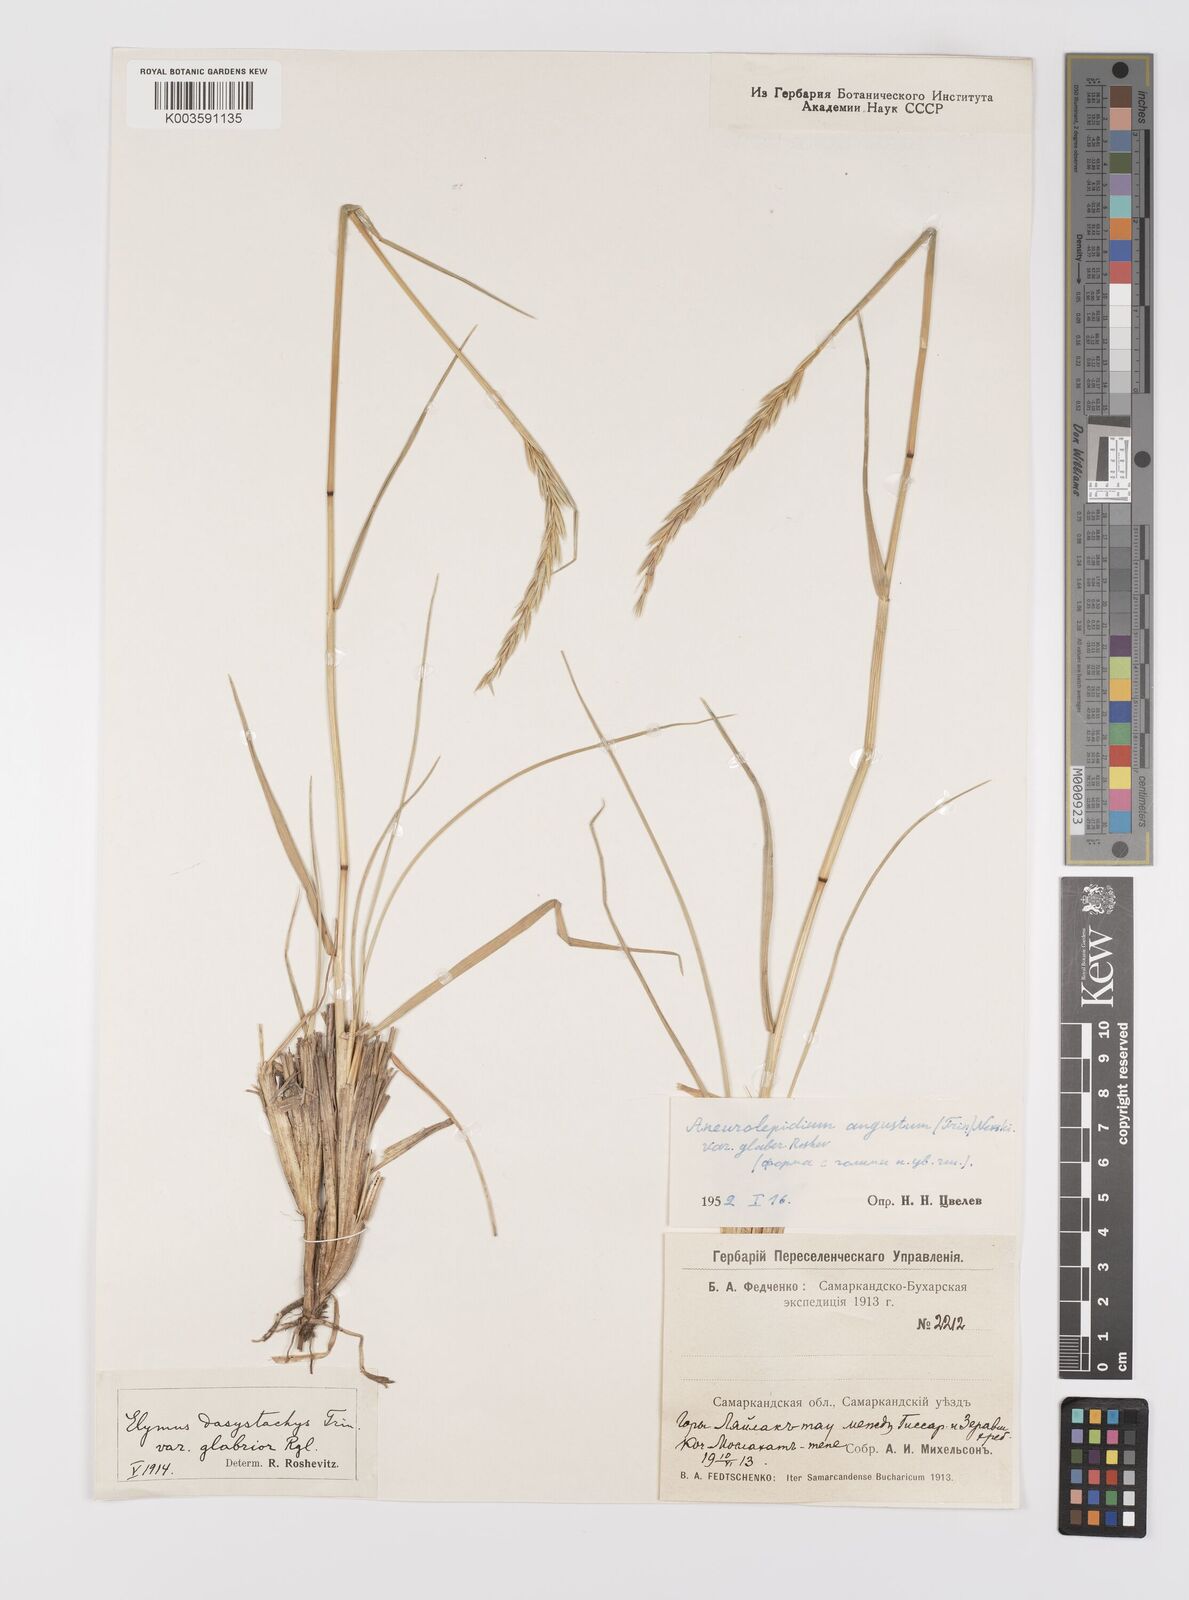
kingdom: Plantae
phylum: Tracheophyta
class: Liliopsida
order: Poales
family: Poaceae
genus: Leymus
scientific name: Leymus secalinus
